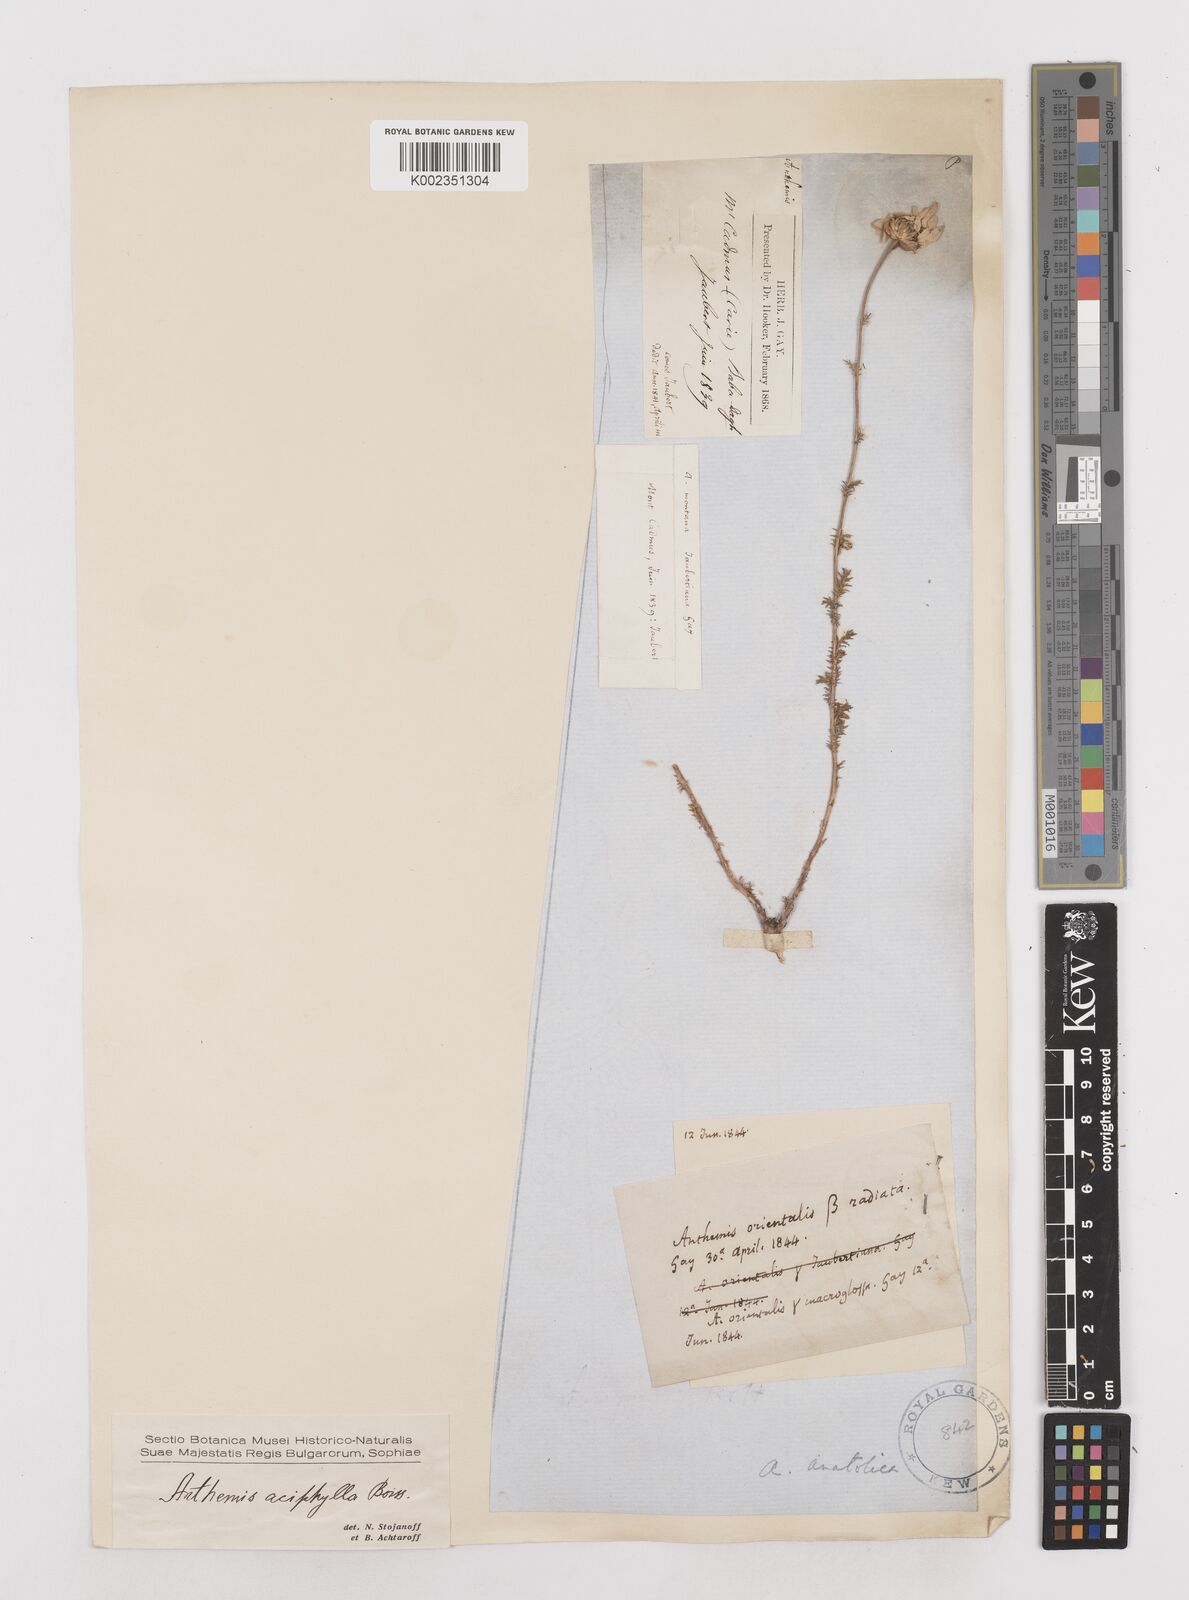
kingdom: Plantae
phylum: Tracheophyta
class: Magnoliopsida
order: Asterales
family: Asteraceae
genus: Anthemis
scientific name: Anthemis aciphylla
